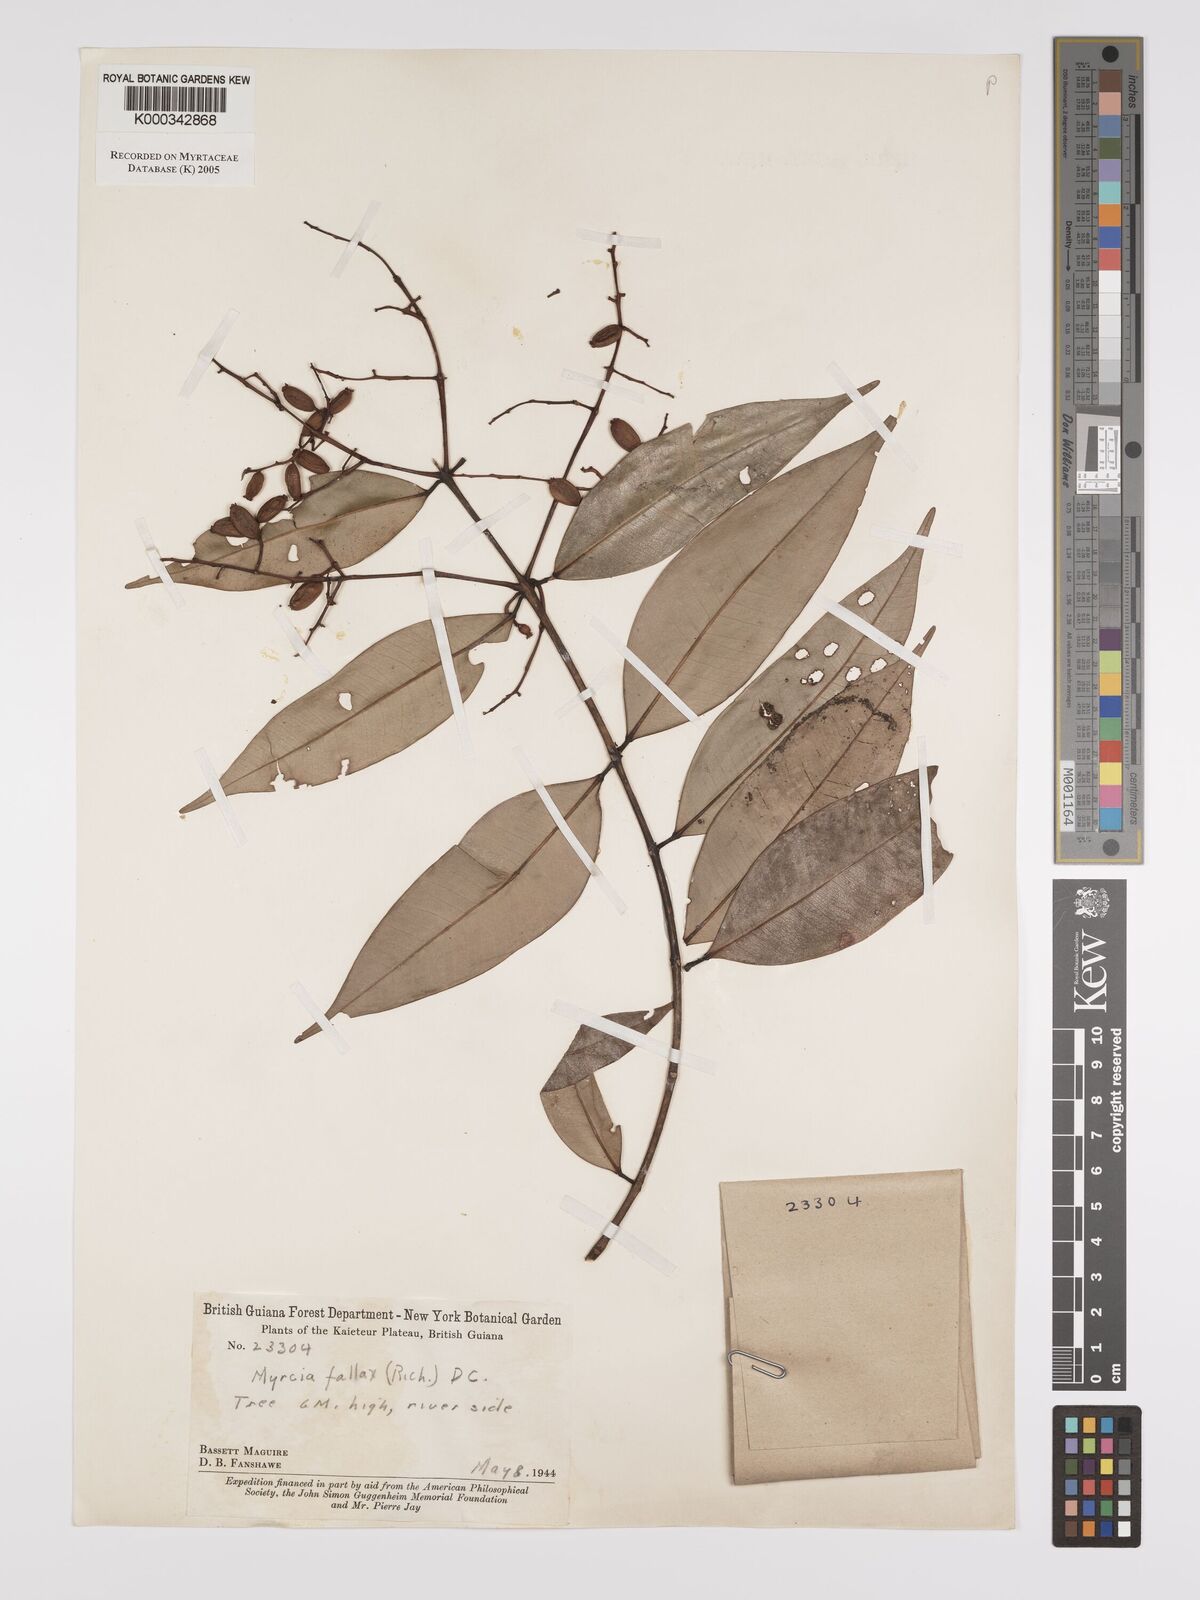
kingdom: Plantae
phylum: Tracheophyta
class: Magnoliopsida
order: Myrtales
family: Myrtaceae
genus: Myrcia
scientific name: Myrcia splendens
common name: Surinam cherry
